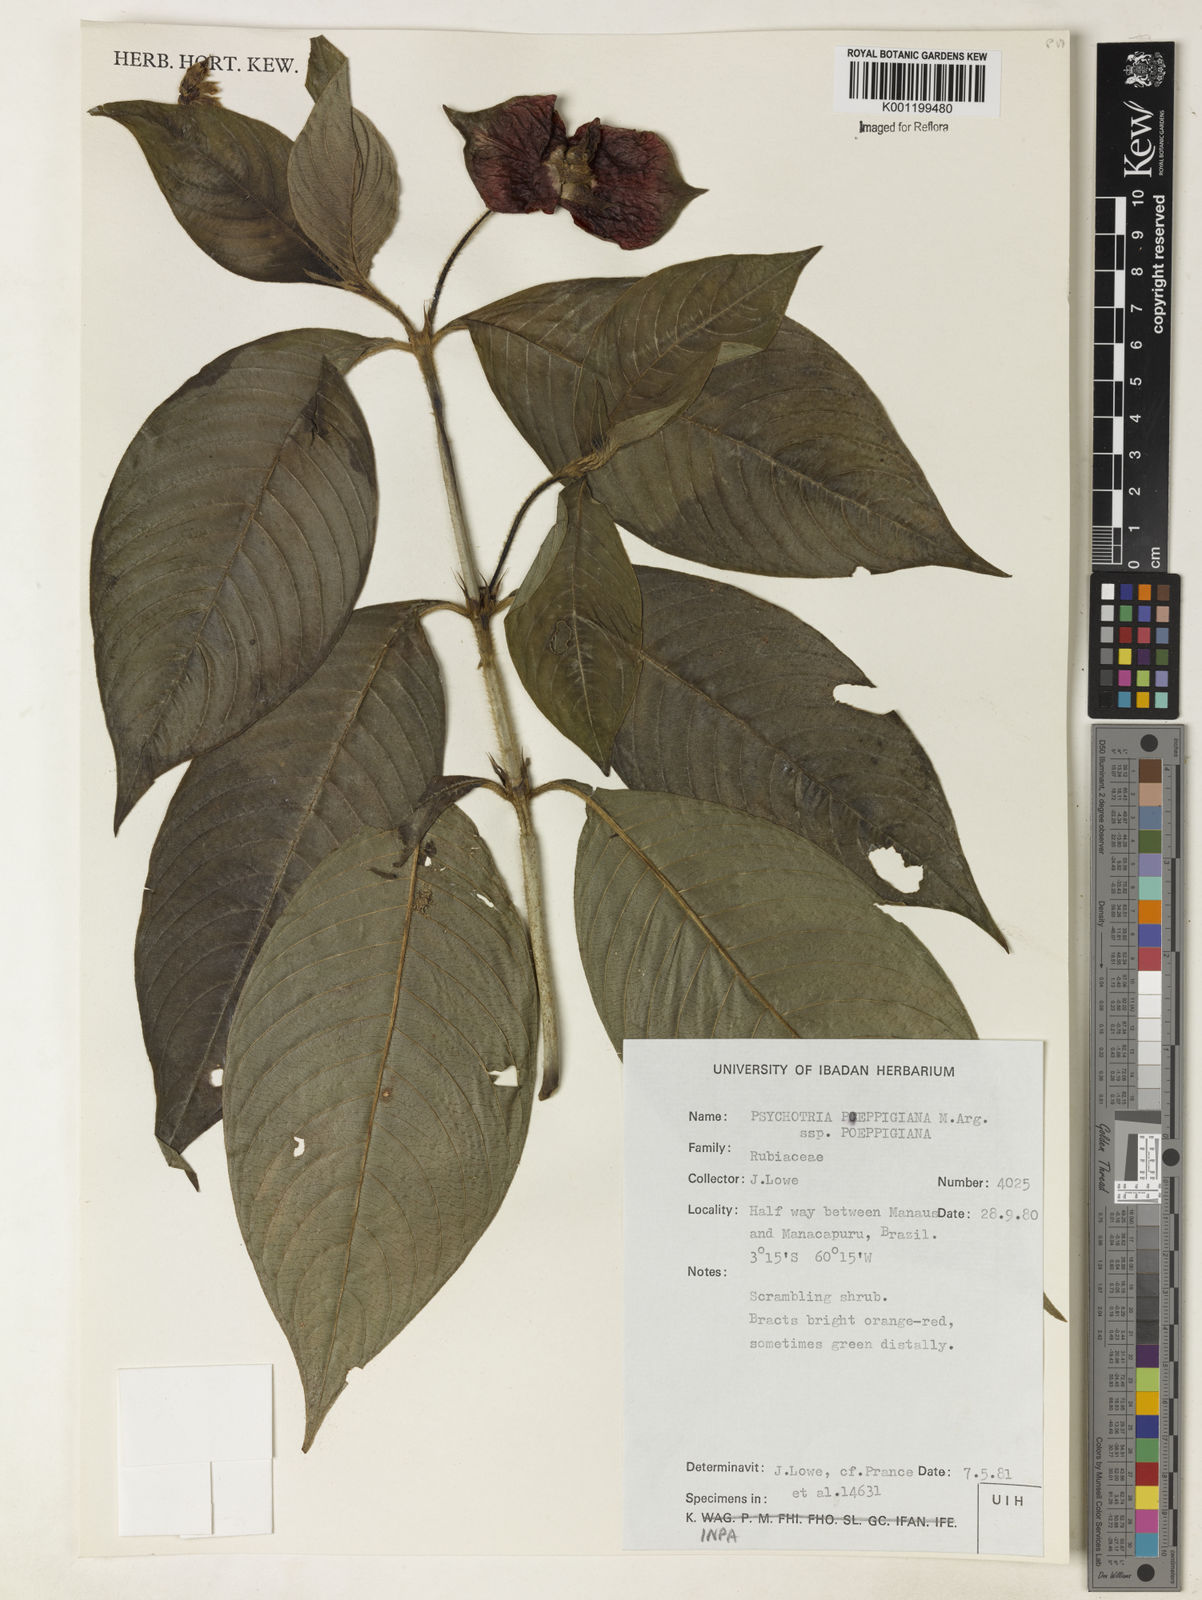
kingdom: Plantae
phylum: Tracheophyta
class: Magnoliopsida
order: Gentianales
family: Rubiaceae
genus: Psychotria
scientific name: Psychotria
